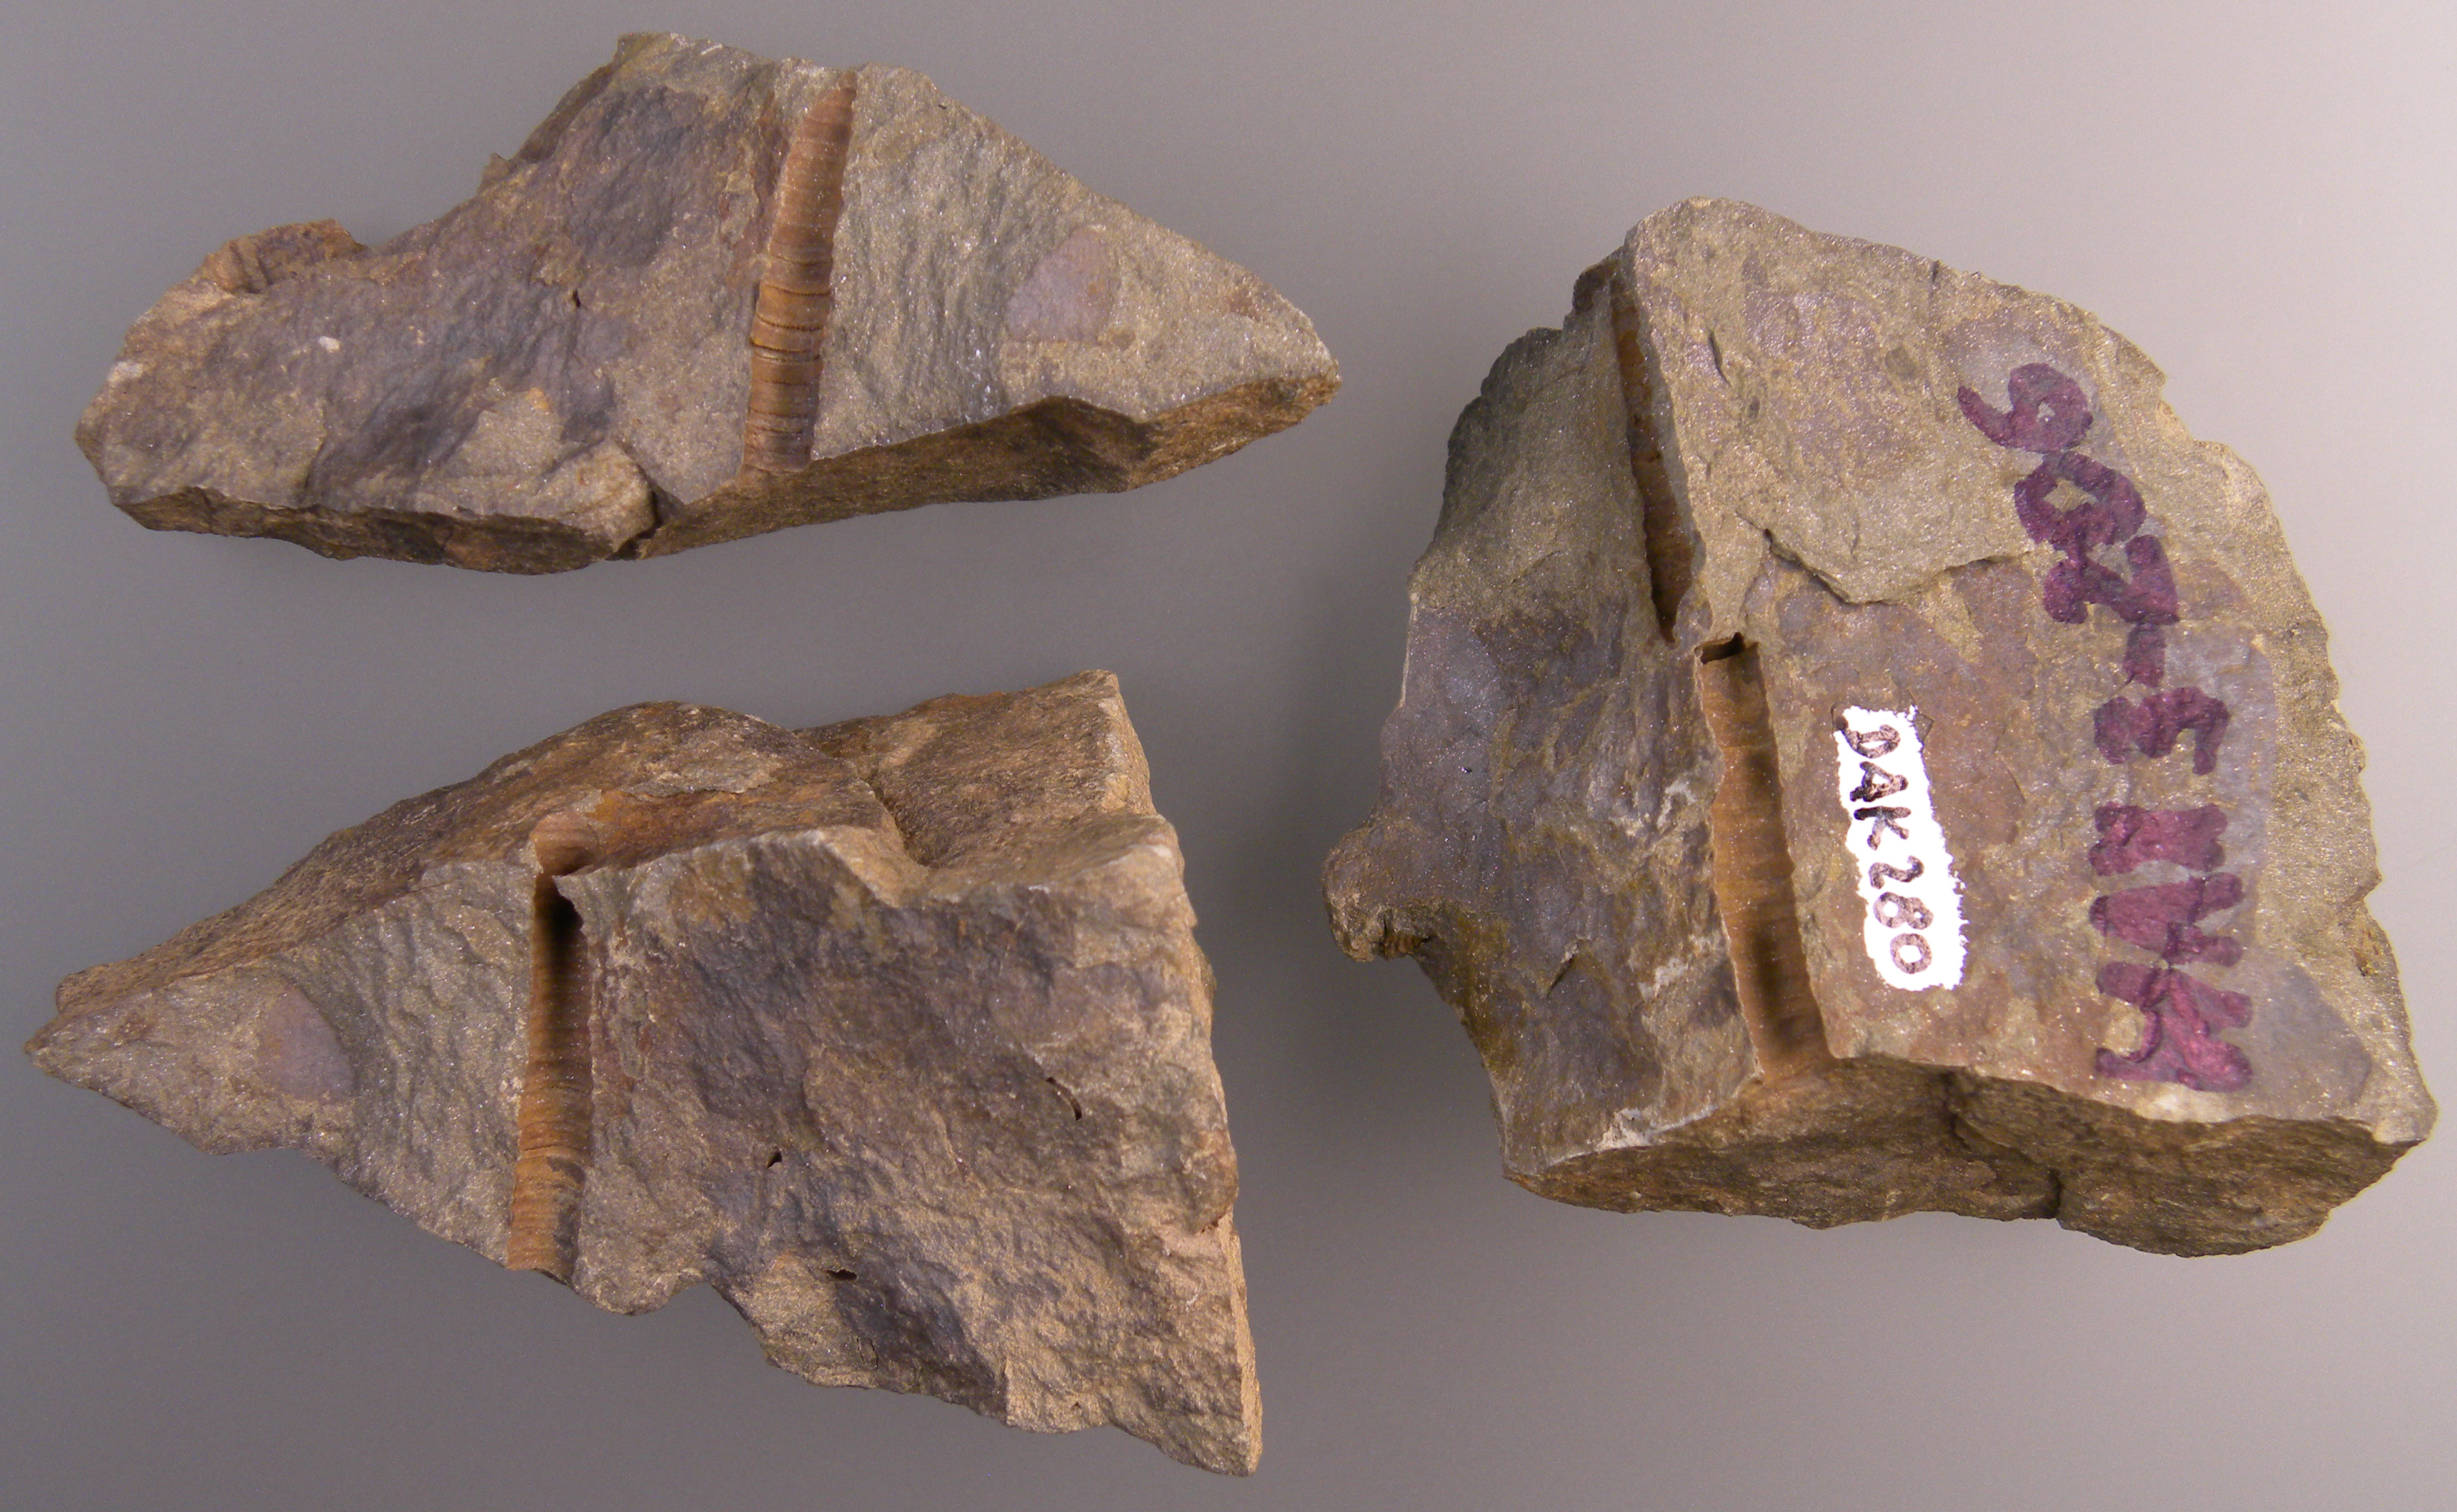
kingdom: Animalia
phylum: Echinodermata
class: Crinoidea
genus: Facetocrinus
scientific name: Facetocrinus
